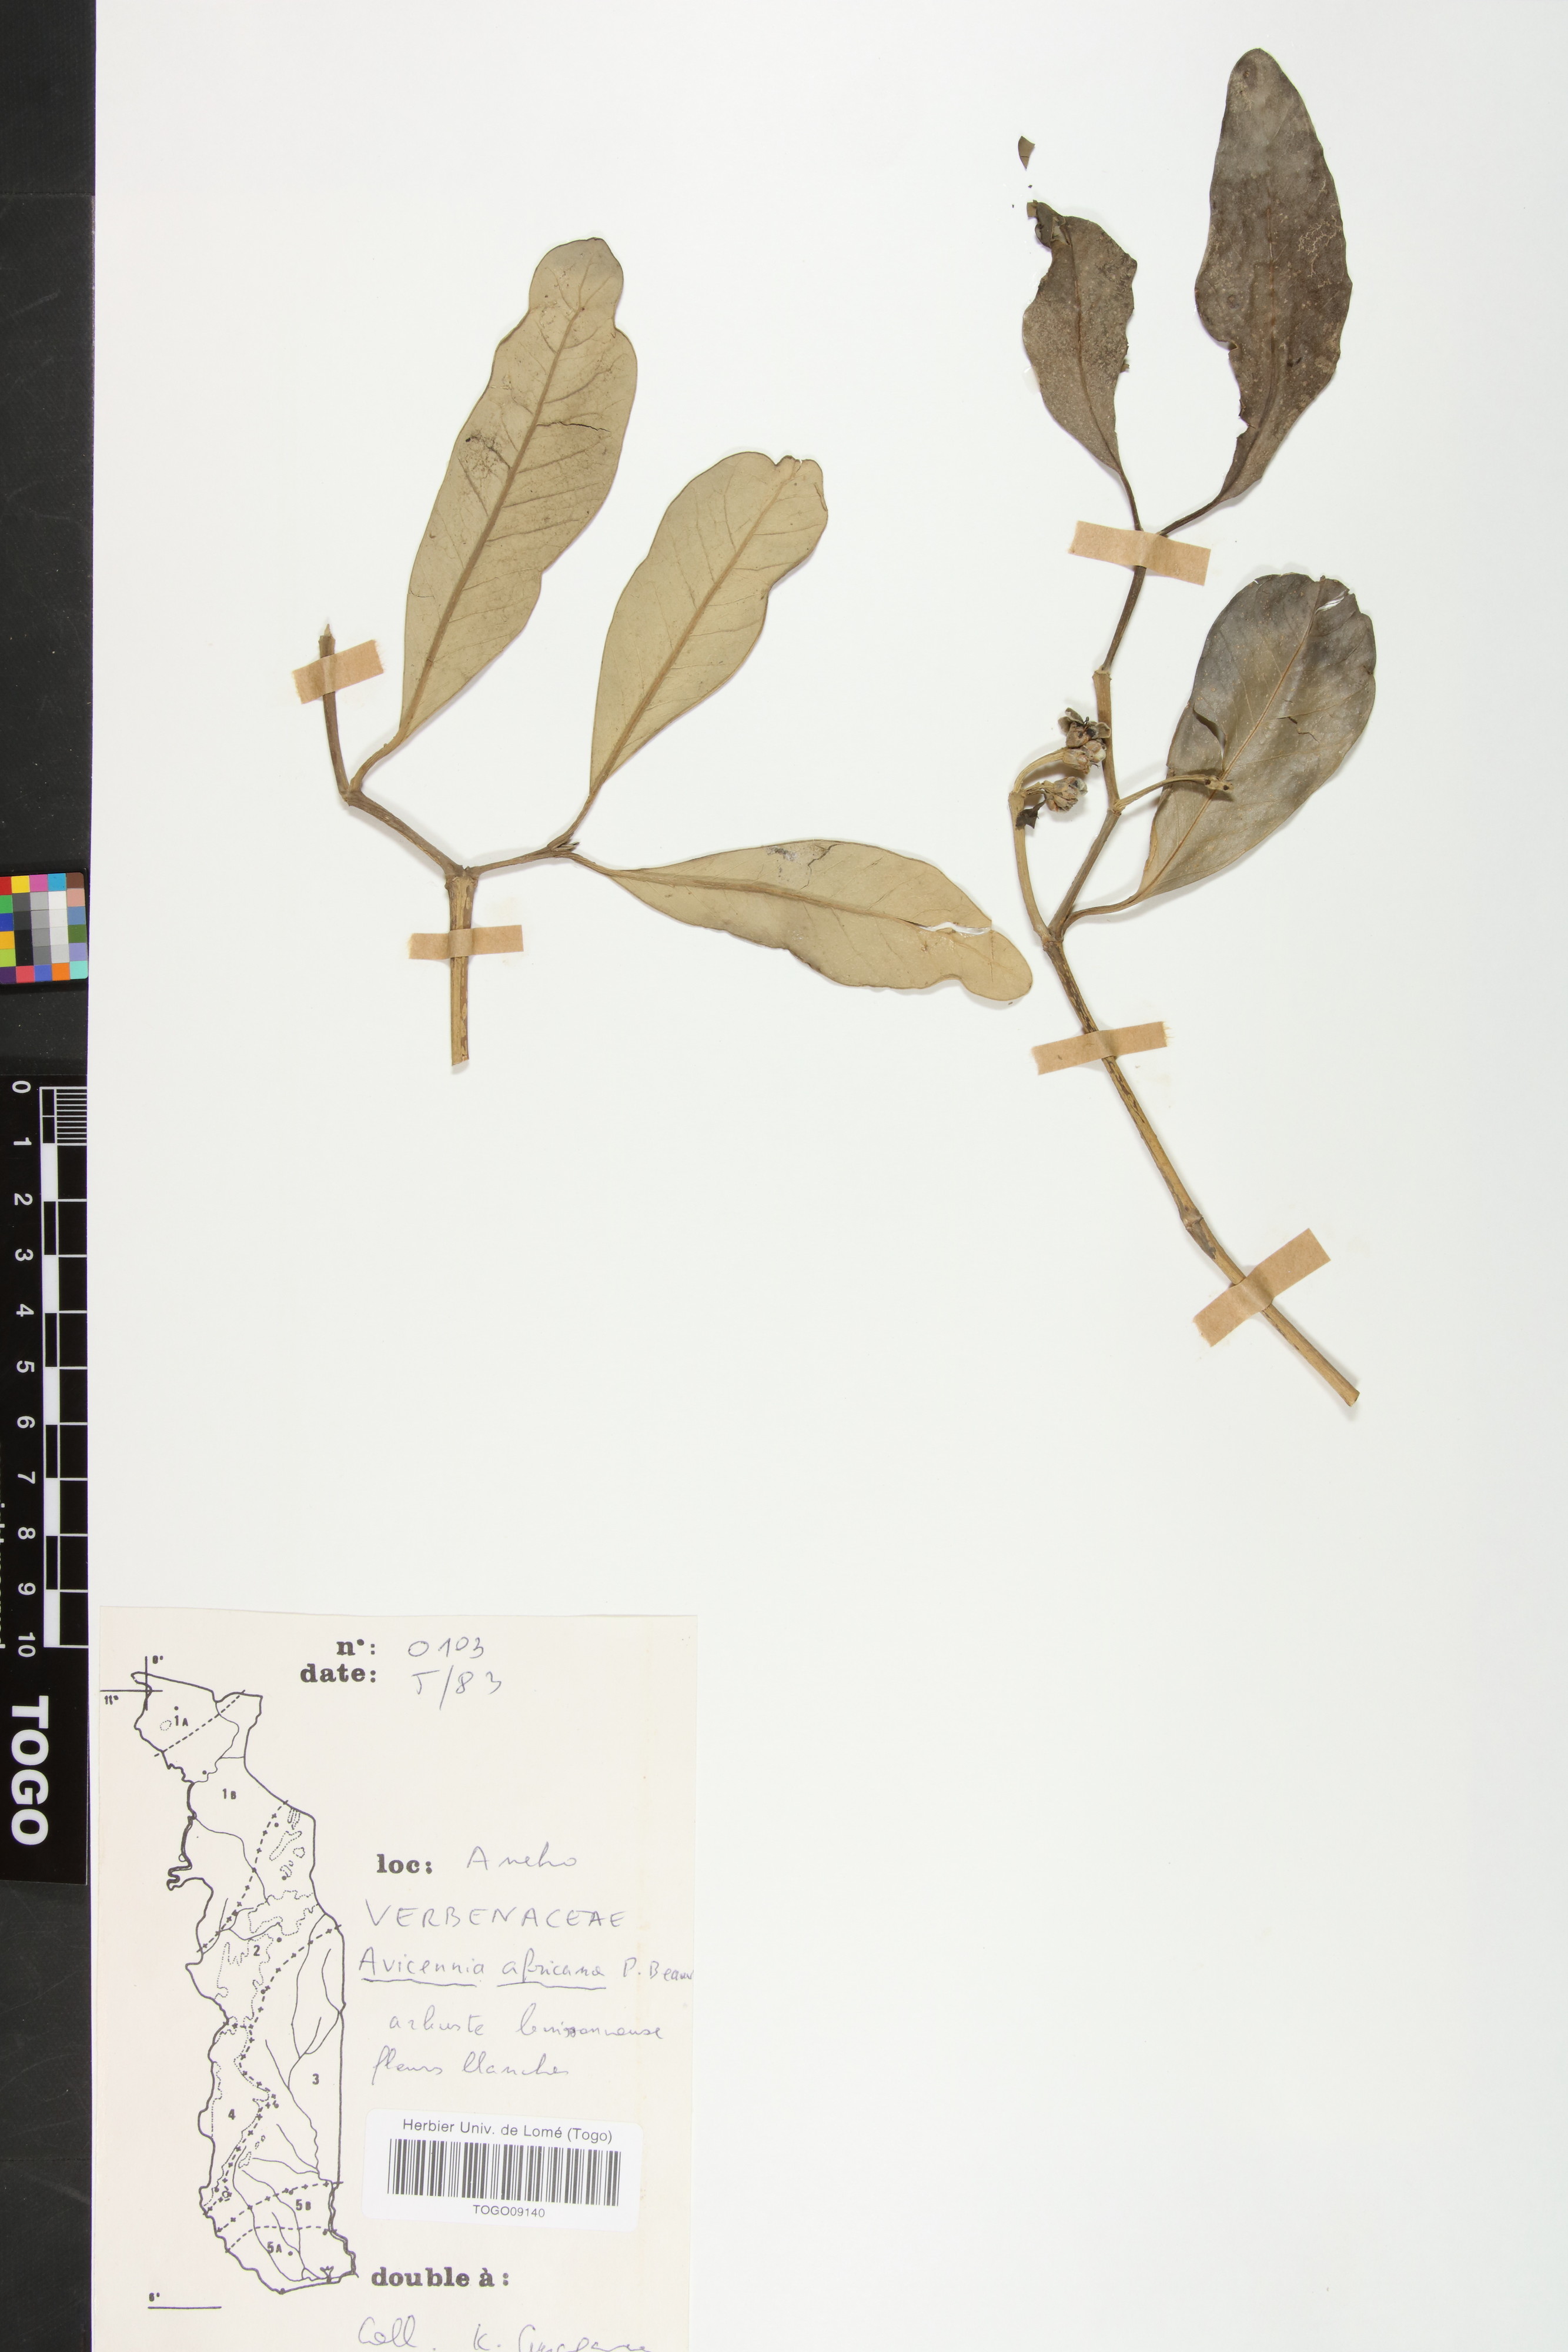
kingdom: Plantae
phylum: Tracheophyta
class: Magnoliopsida
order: Lamiales
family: Acanthaceae
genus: Avicennia
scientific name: Avicennia germinans
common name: Black mangrove
